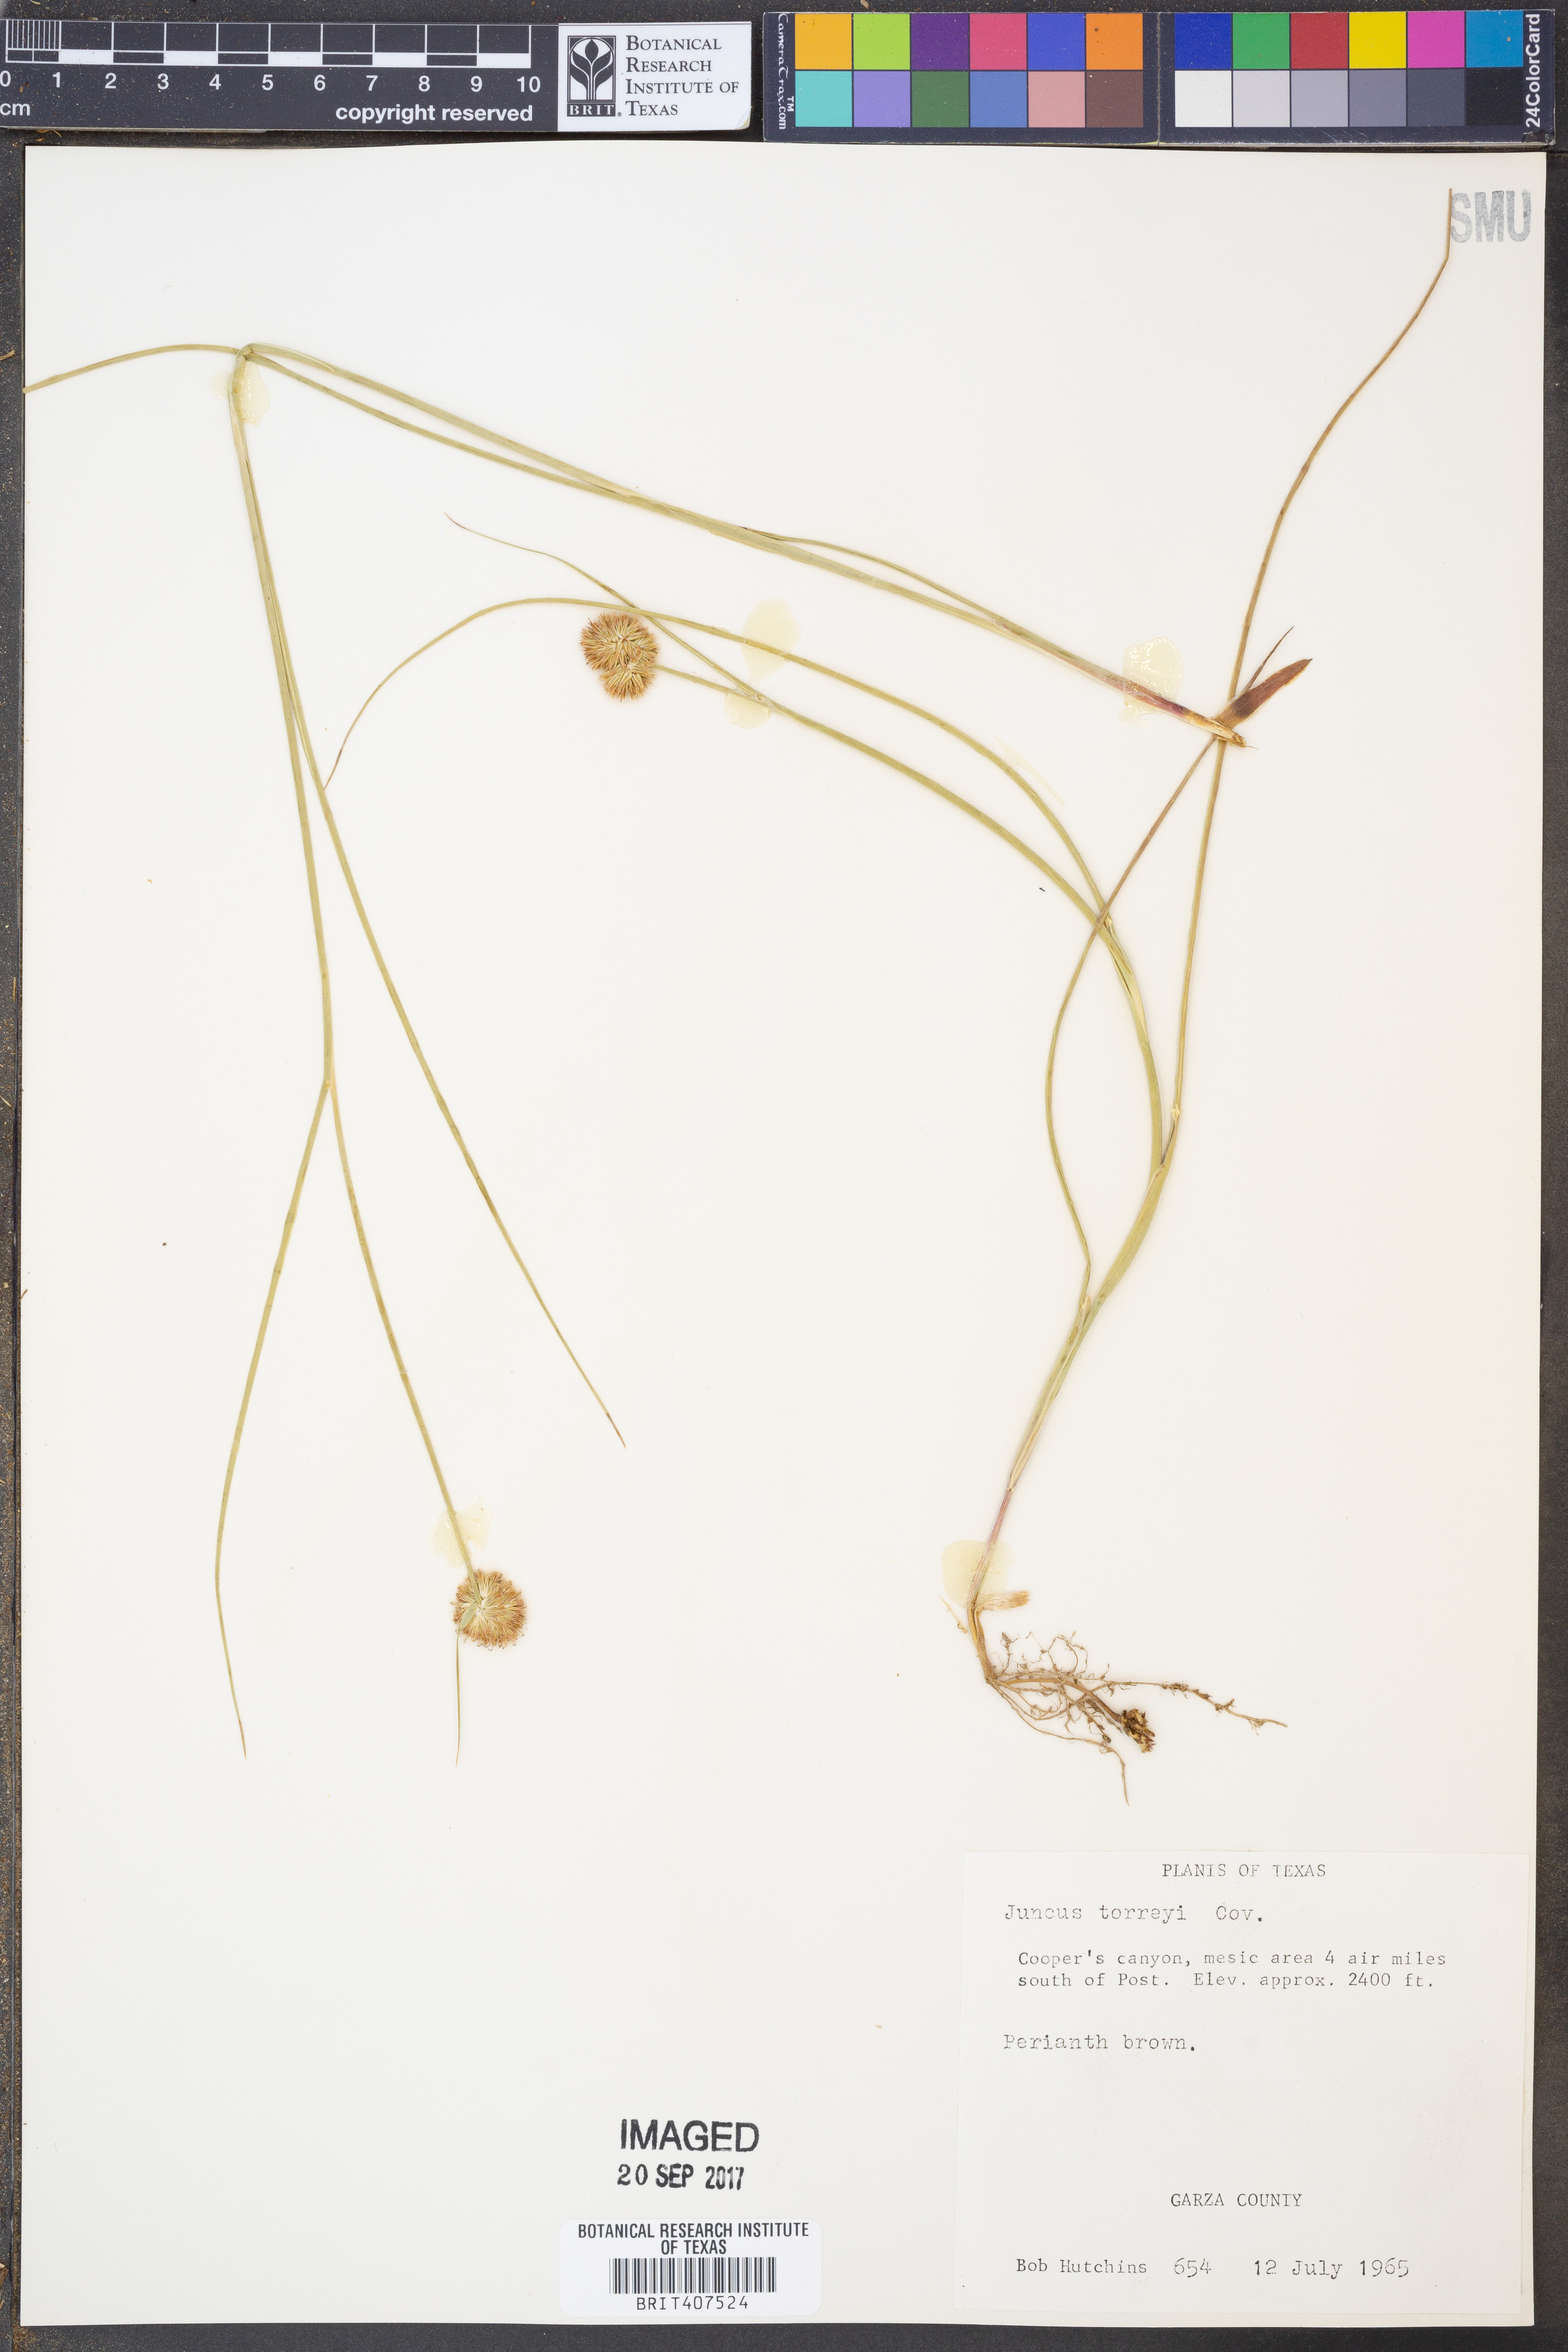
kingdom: Plantae
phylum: Tracheophyta
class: Liliopsida
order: Poales
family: Juncaceae
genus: Juncus
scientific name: Juncus torreyi
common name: Torrey's rush
